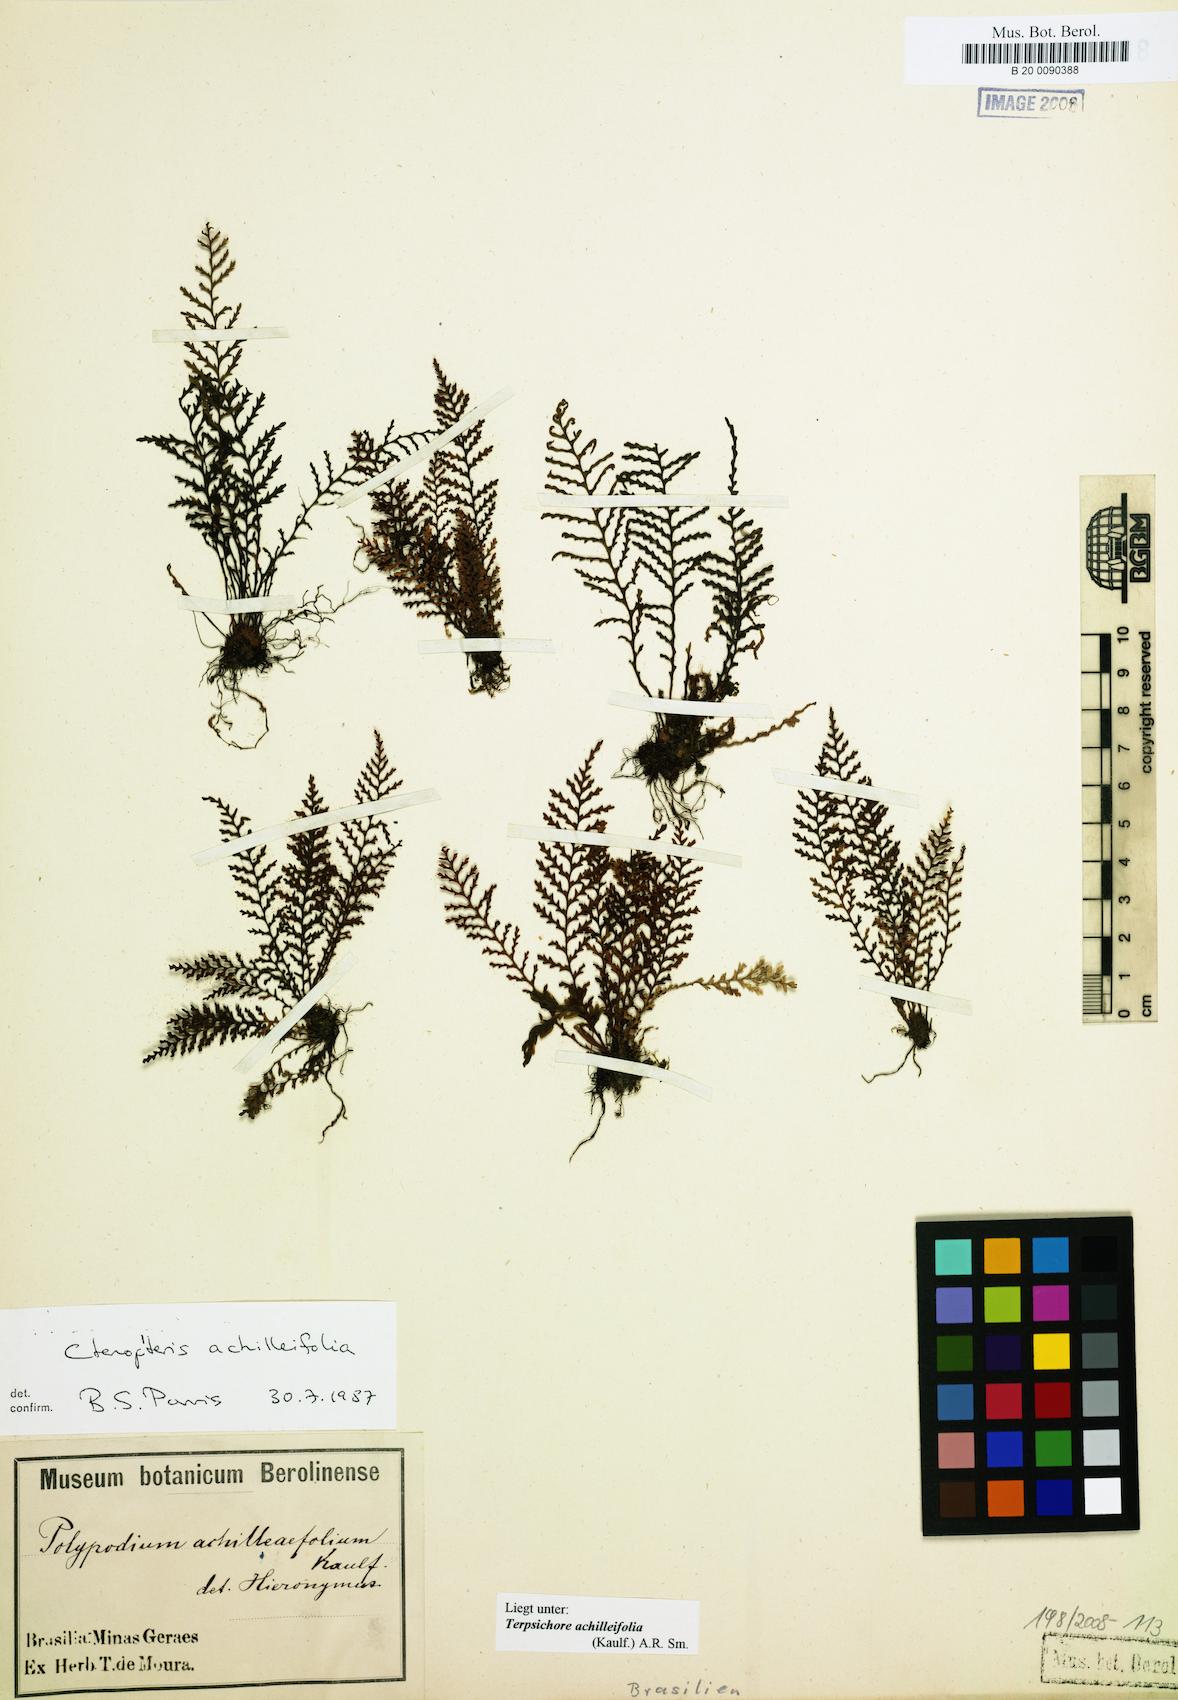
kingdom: Plantae
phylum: Tracheophyta
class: Polypodiopsida
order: Polypodiales
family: Polypodiaceae
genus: Moranopteris
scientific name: Moranopteris achilleifolia
